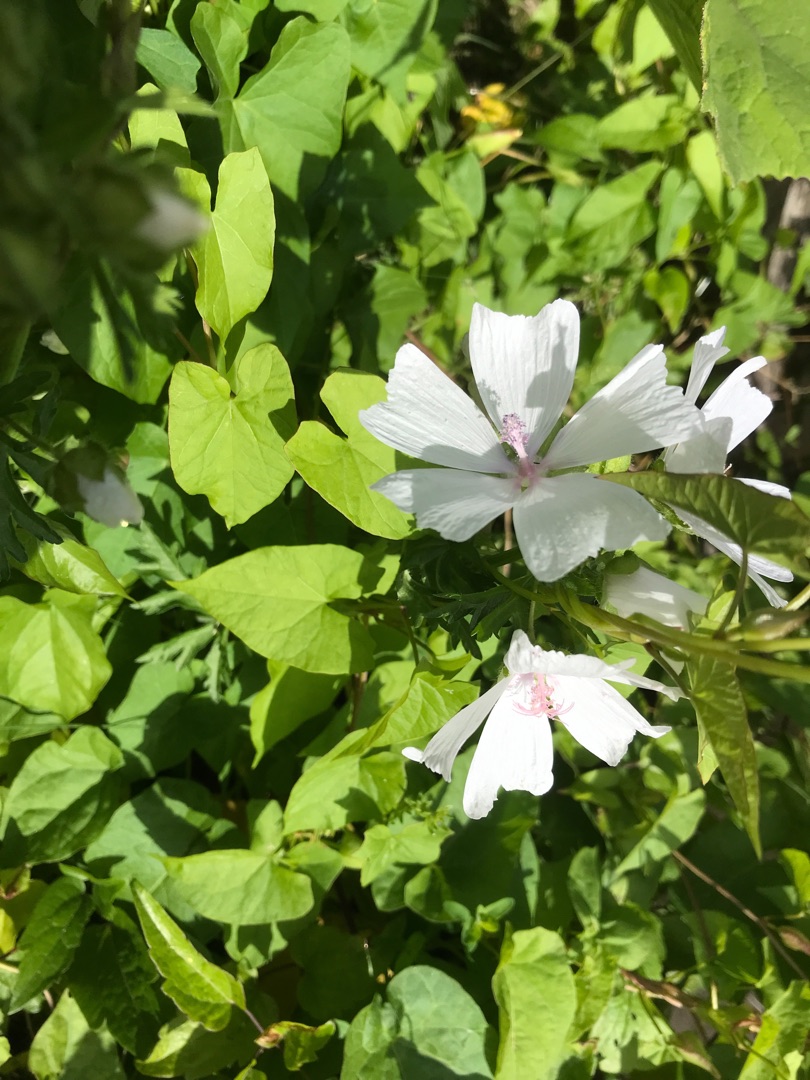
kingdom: Plantae
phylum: Tracheophyta
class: Magnoliopsida
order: Malvales
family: Malvaceae
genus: Malva
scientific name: Malva
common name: Katostslægten
